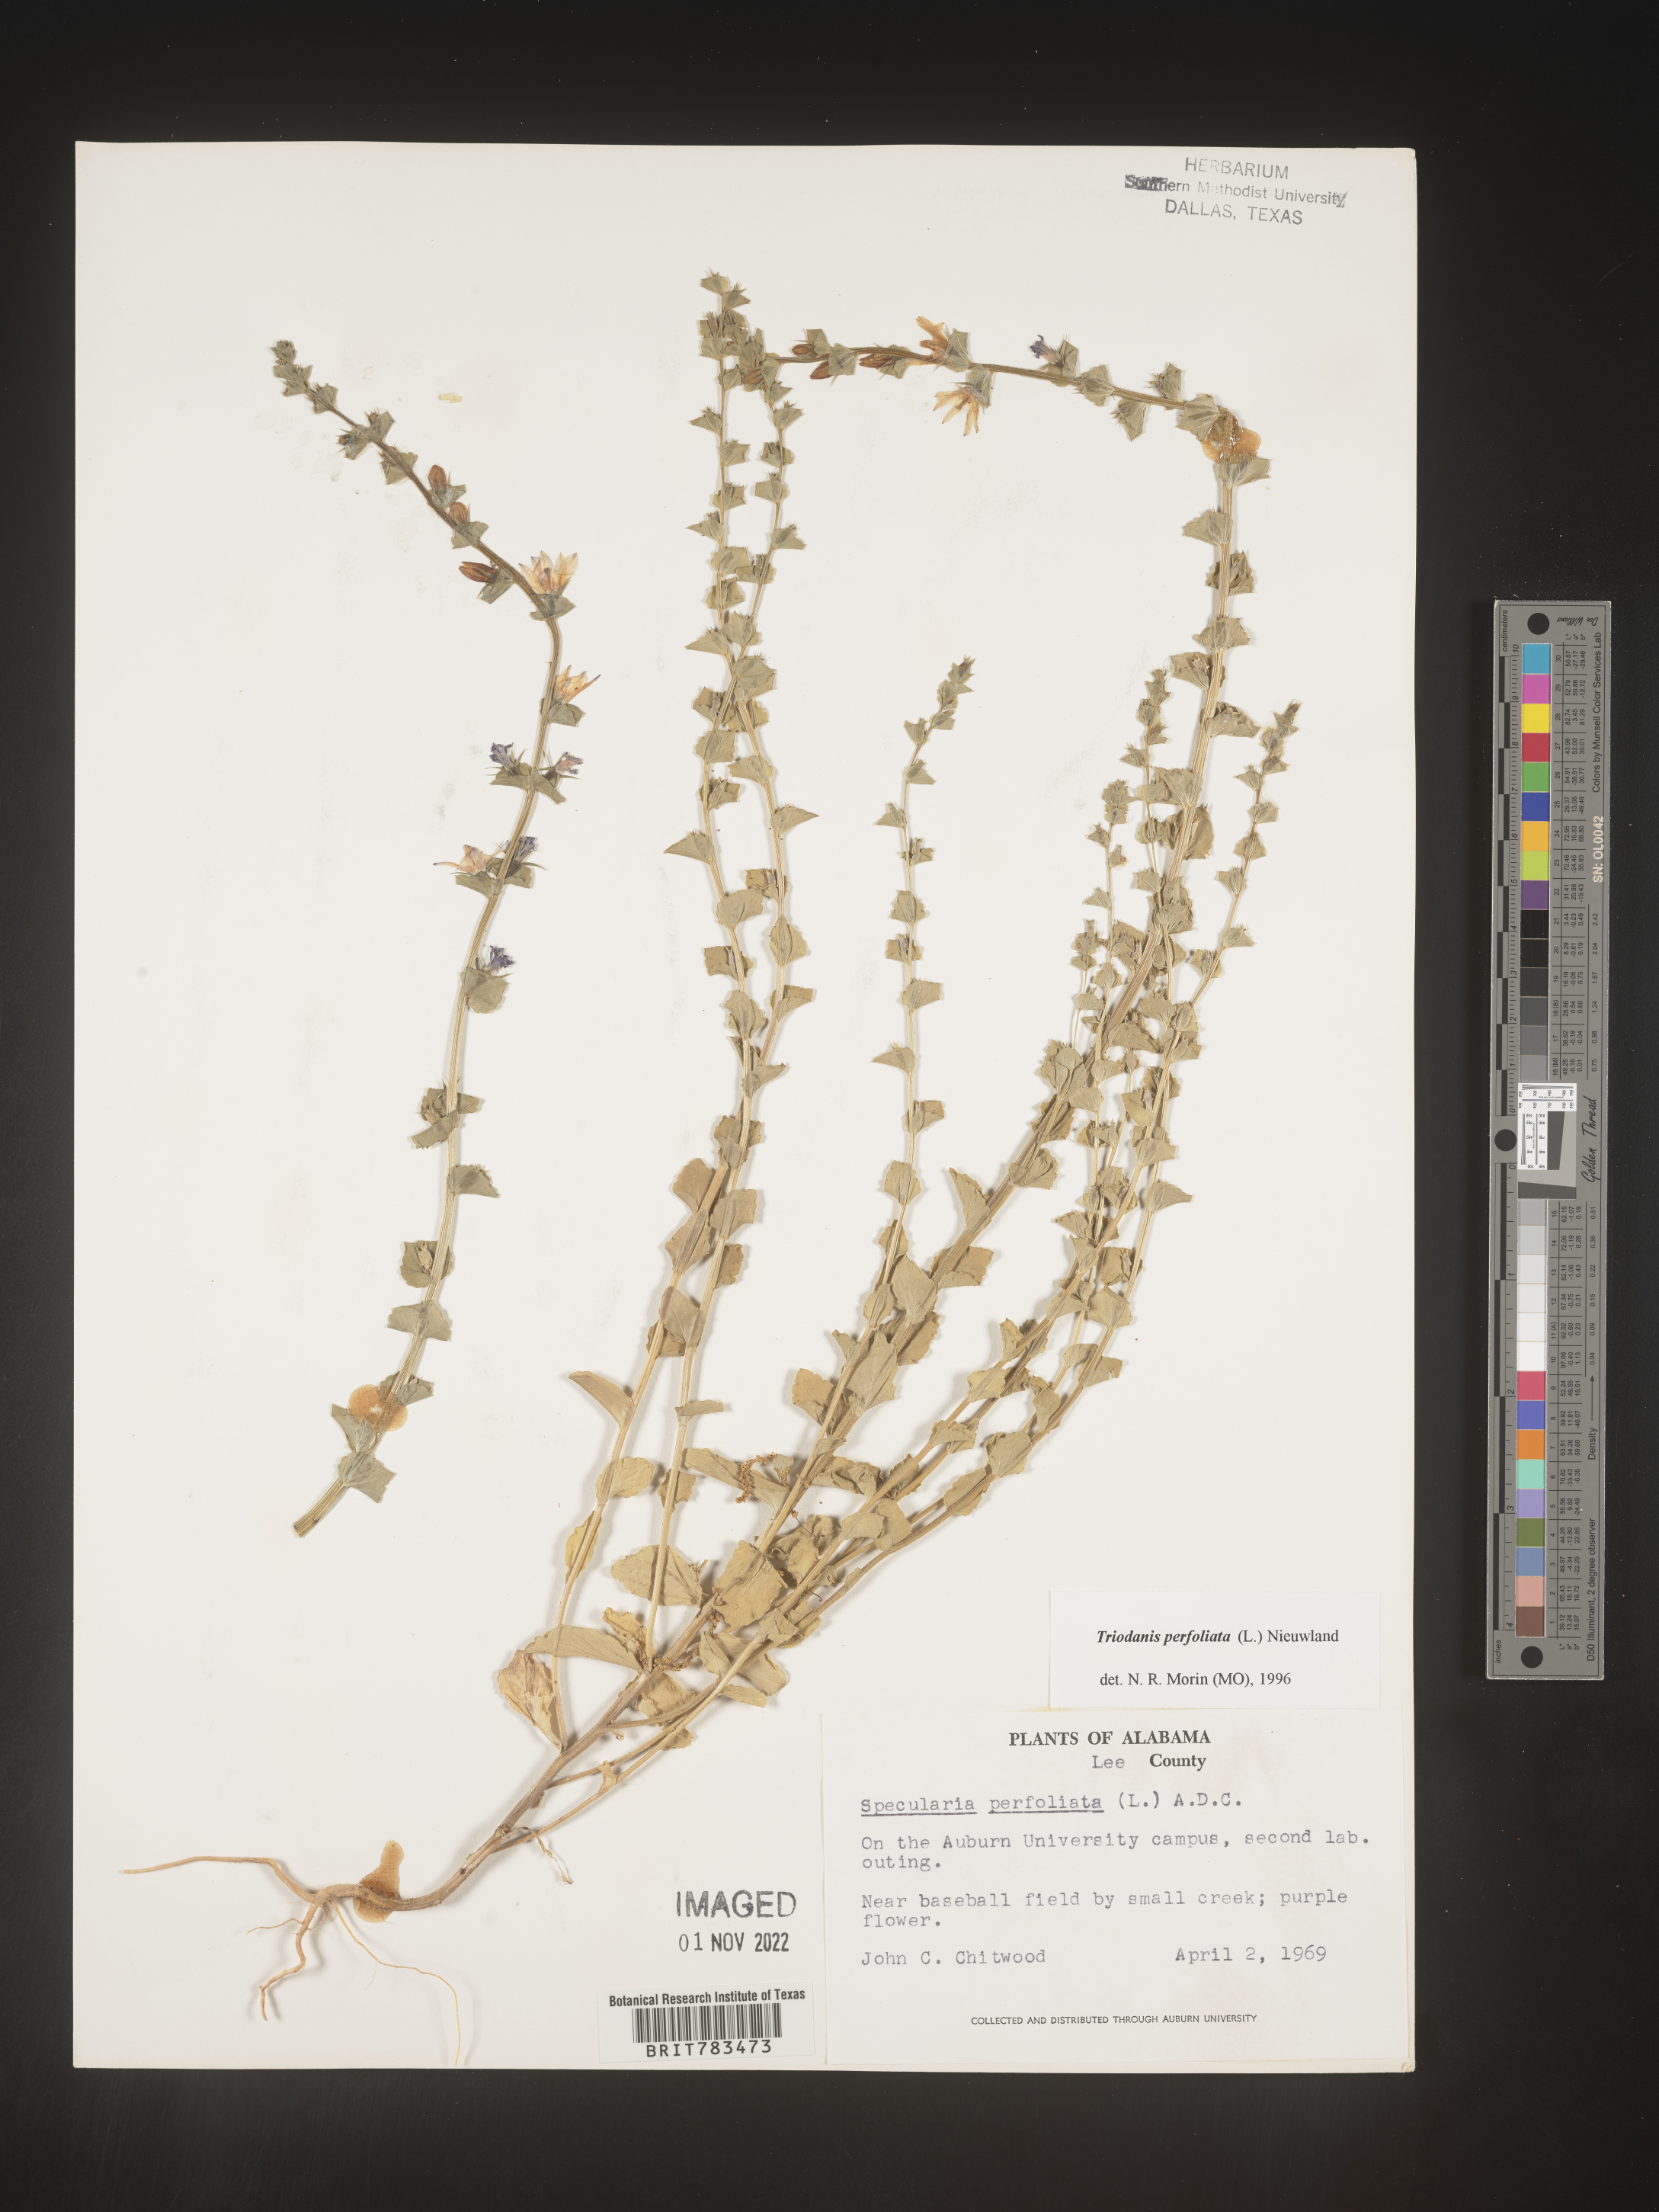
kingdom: Plantae
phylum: Tracheophyta
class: Magnoliopsida
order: Asterales
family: Campanulaceae
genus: Triodanis
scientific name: Triodanis perfoliata
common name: Clasping venus' looking-glass
